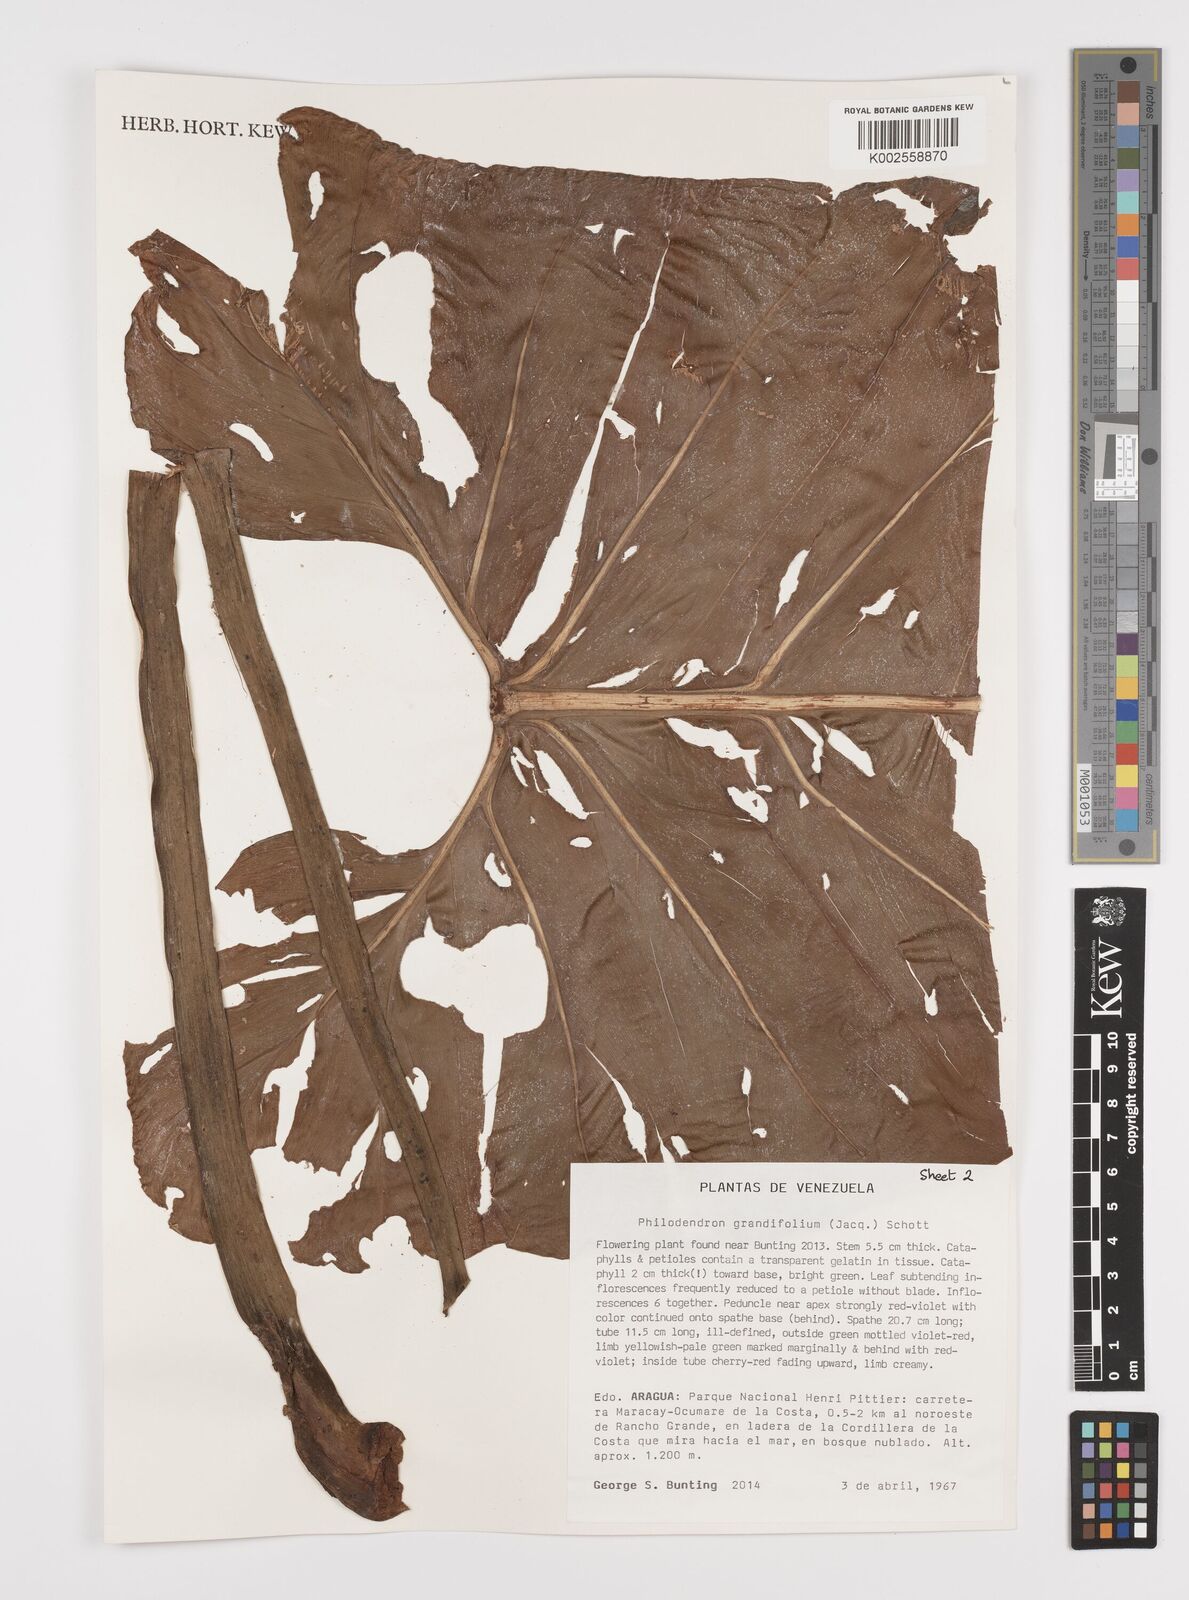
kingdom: Plantae
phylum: Tracheophyta
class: Liliopsida
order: Alismatales
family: Araceae
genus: Philodendron
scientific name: Philodendron grandifolium
